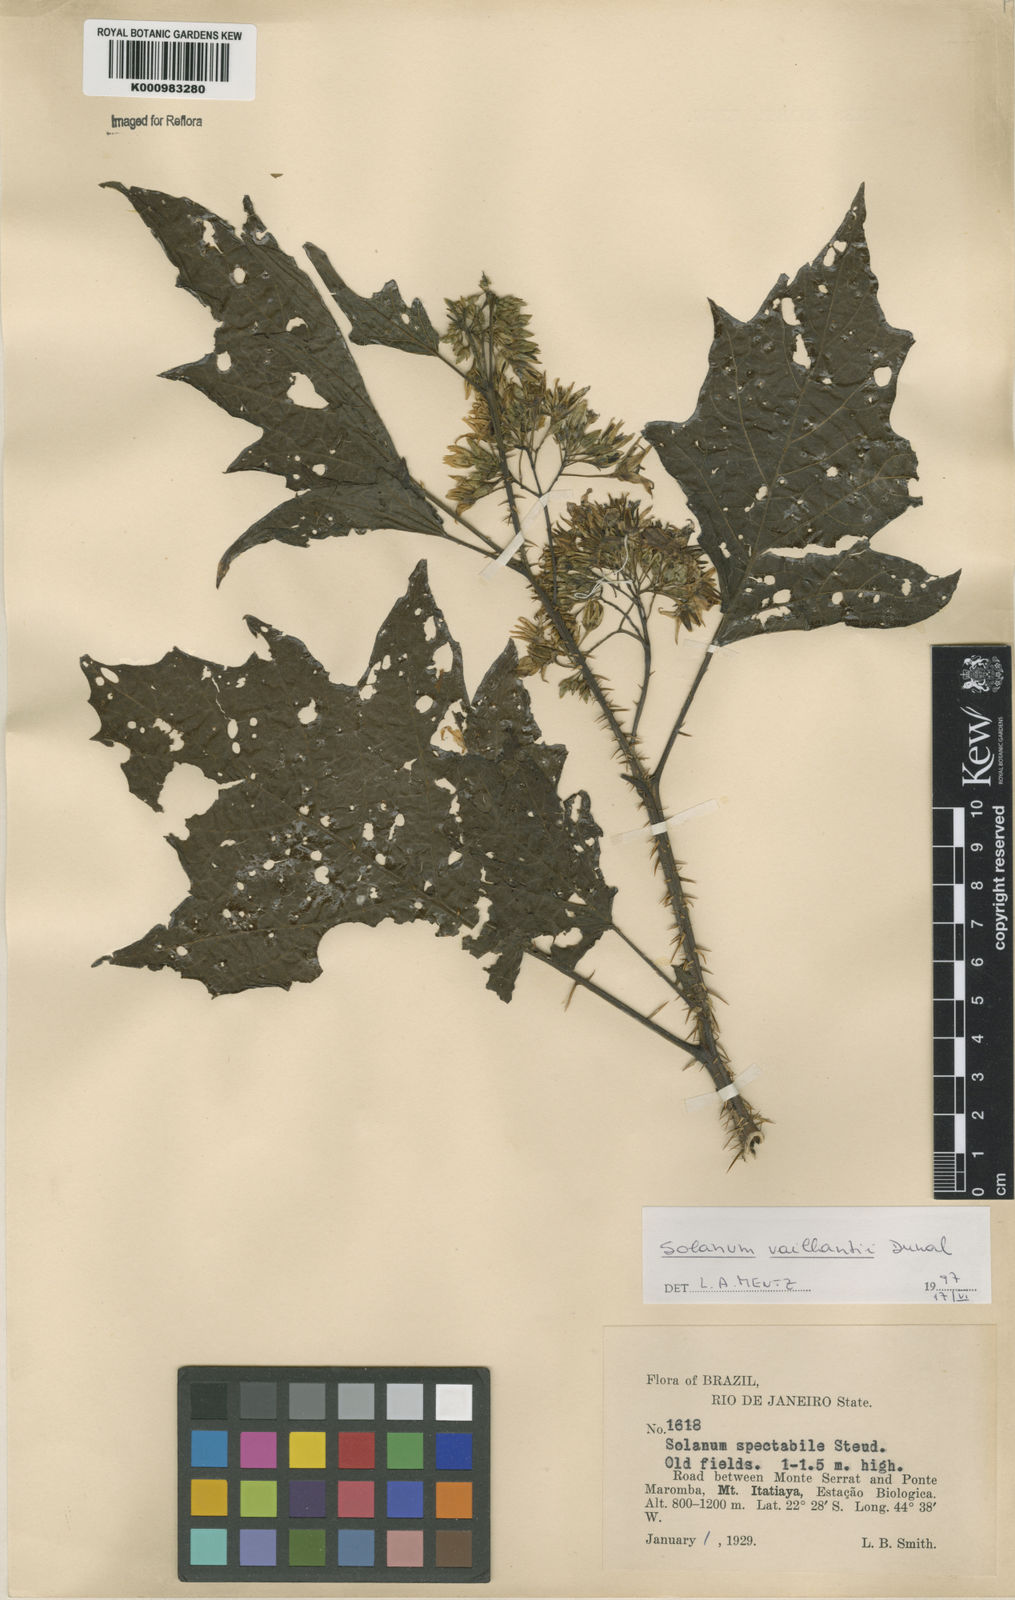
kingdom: Plantae
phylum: Tracheophyta
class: Magnoliopsida
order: Solanales
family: Solanaceae
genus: Solanum
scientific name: Solanum vaillantii
